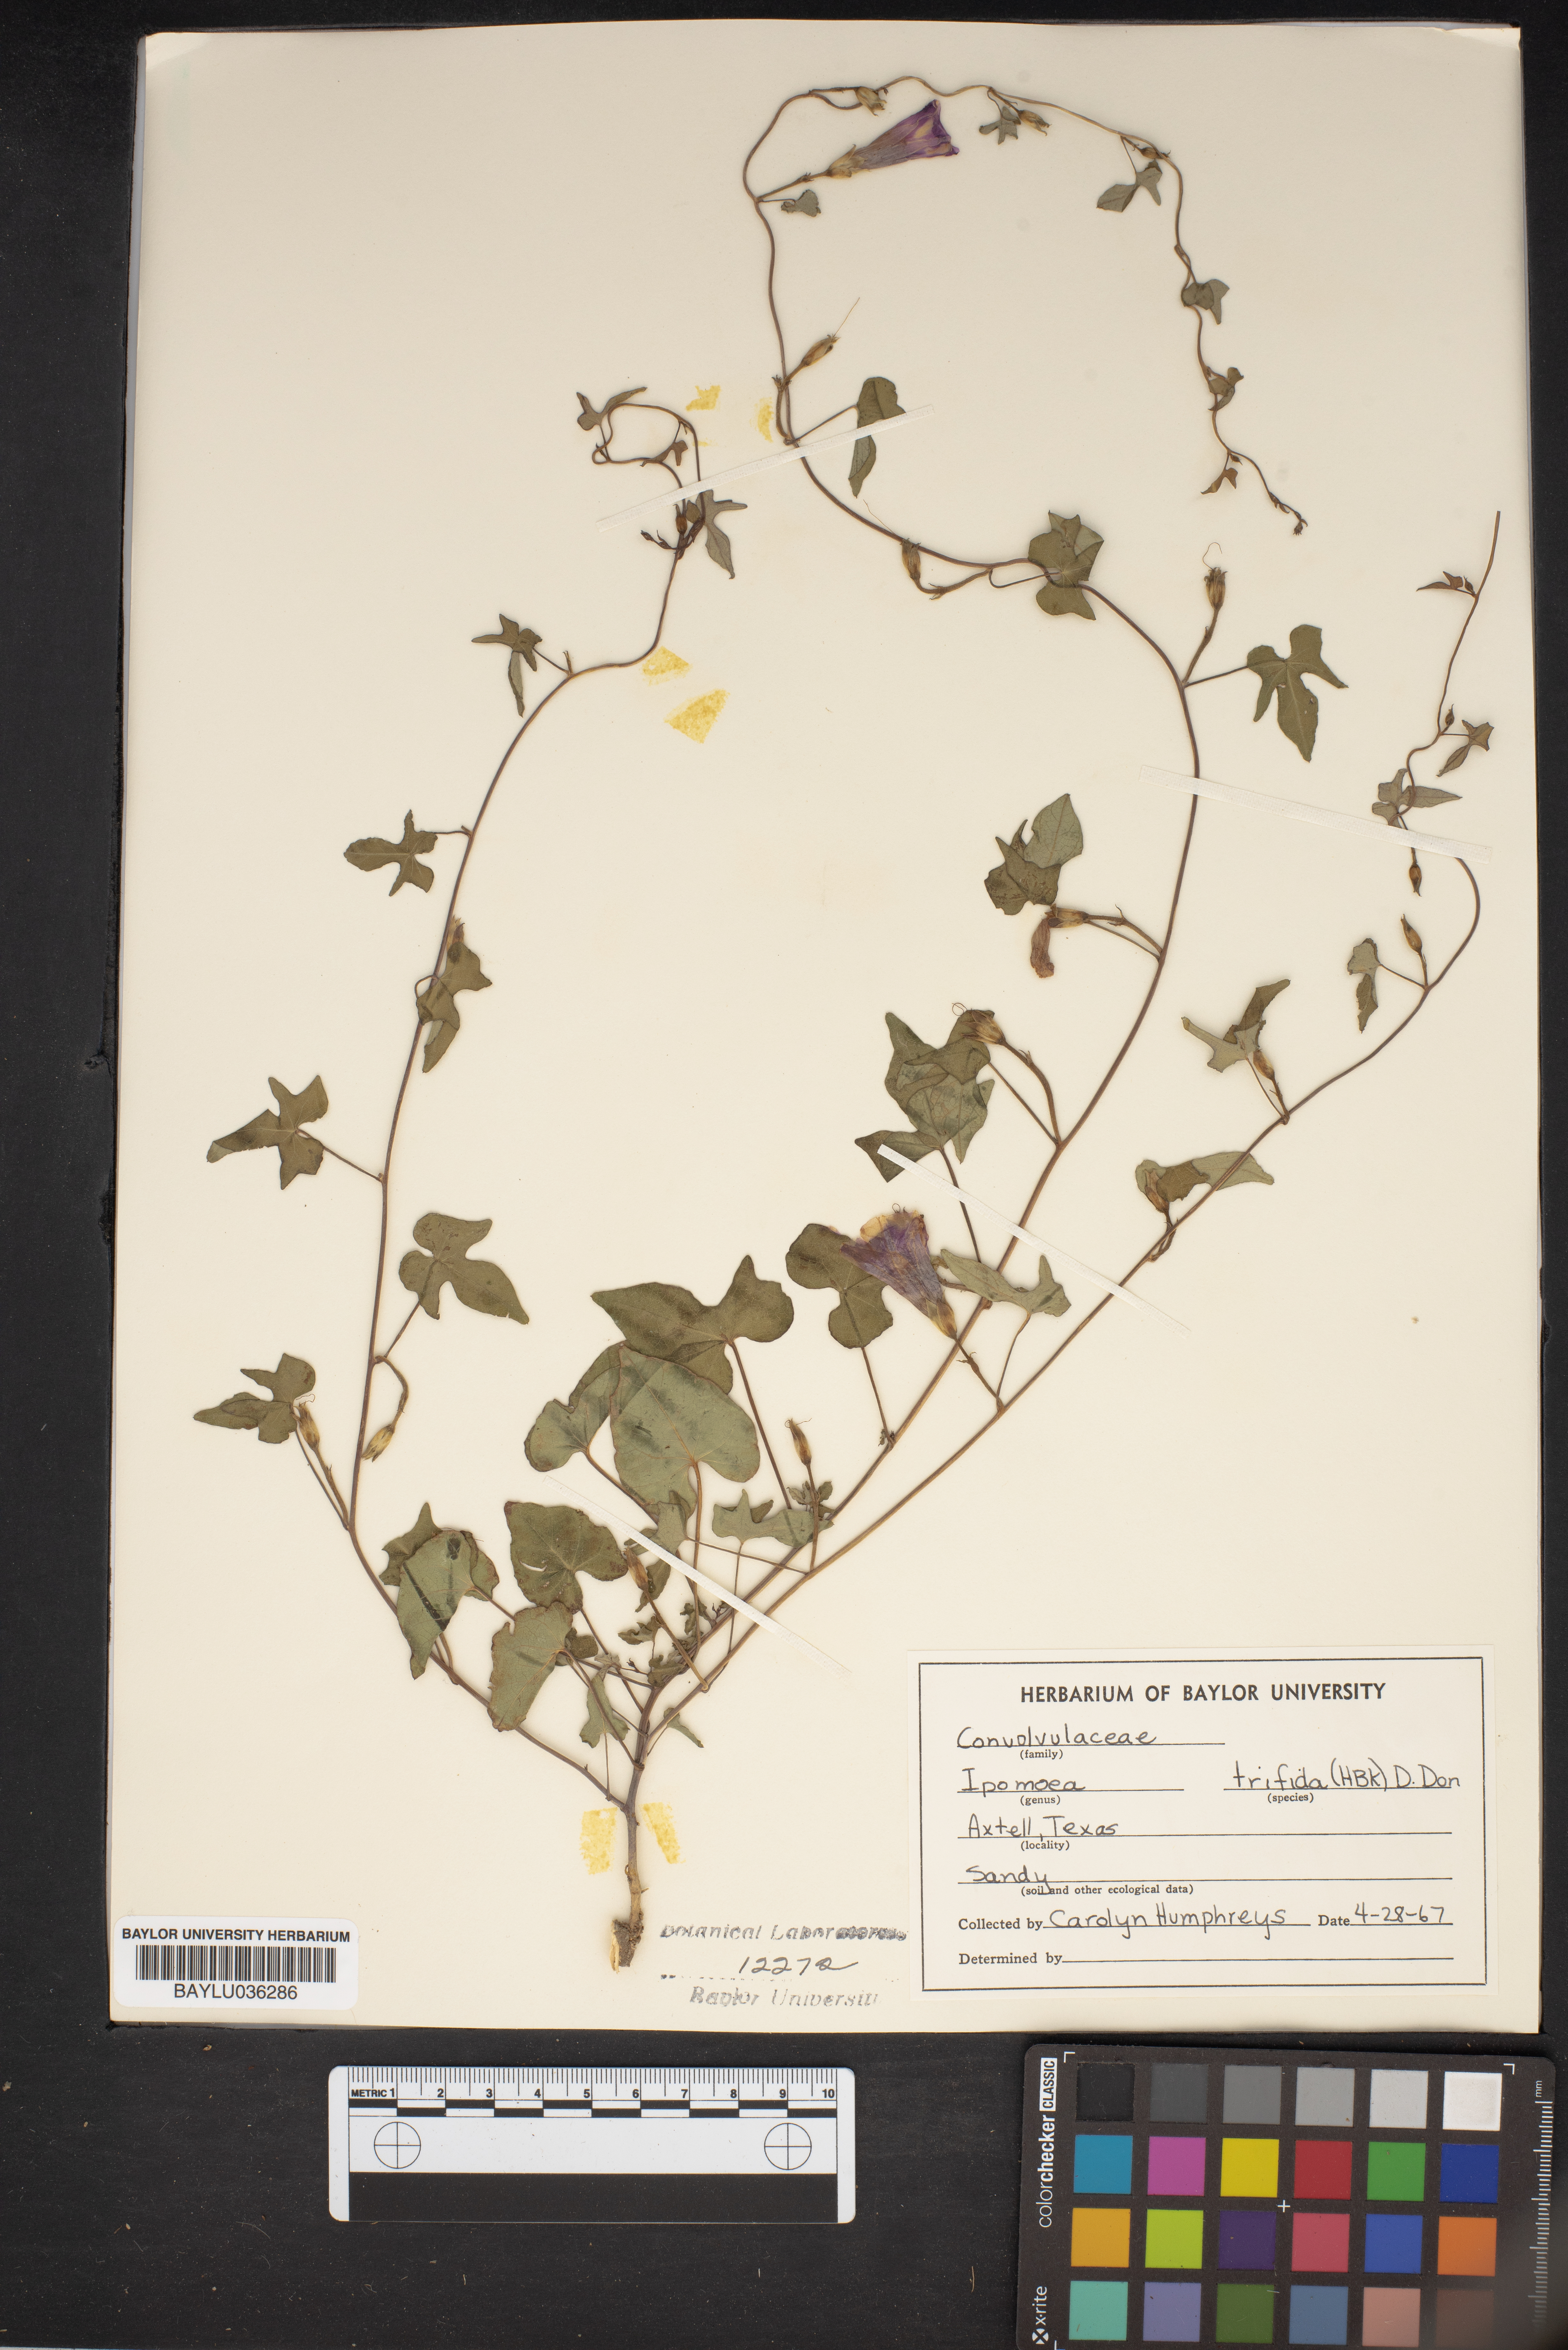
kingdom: Plantae
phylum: Tracheophyta
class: Magnoliopsida
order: Solanales
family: Convolvulaceae
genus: Ipomoea
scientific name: Ipomoea trifida
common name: Cotton morningglory
